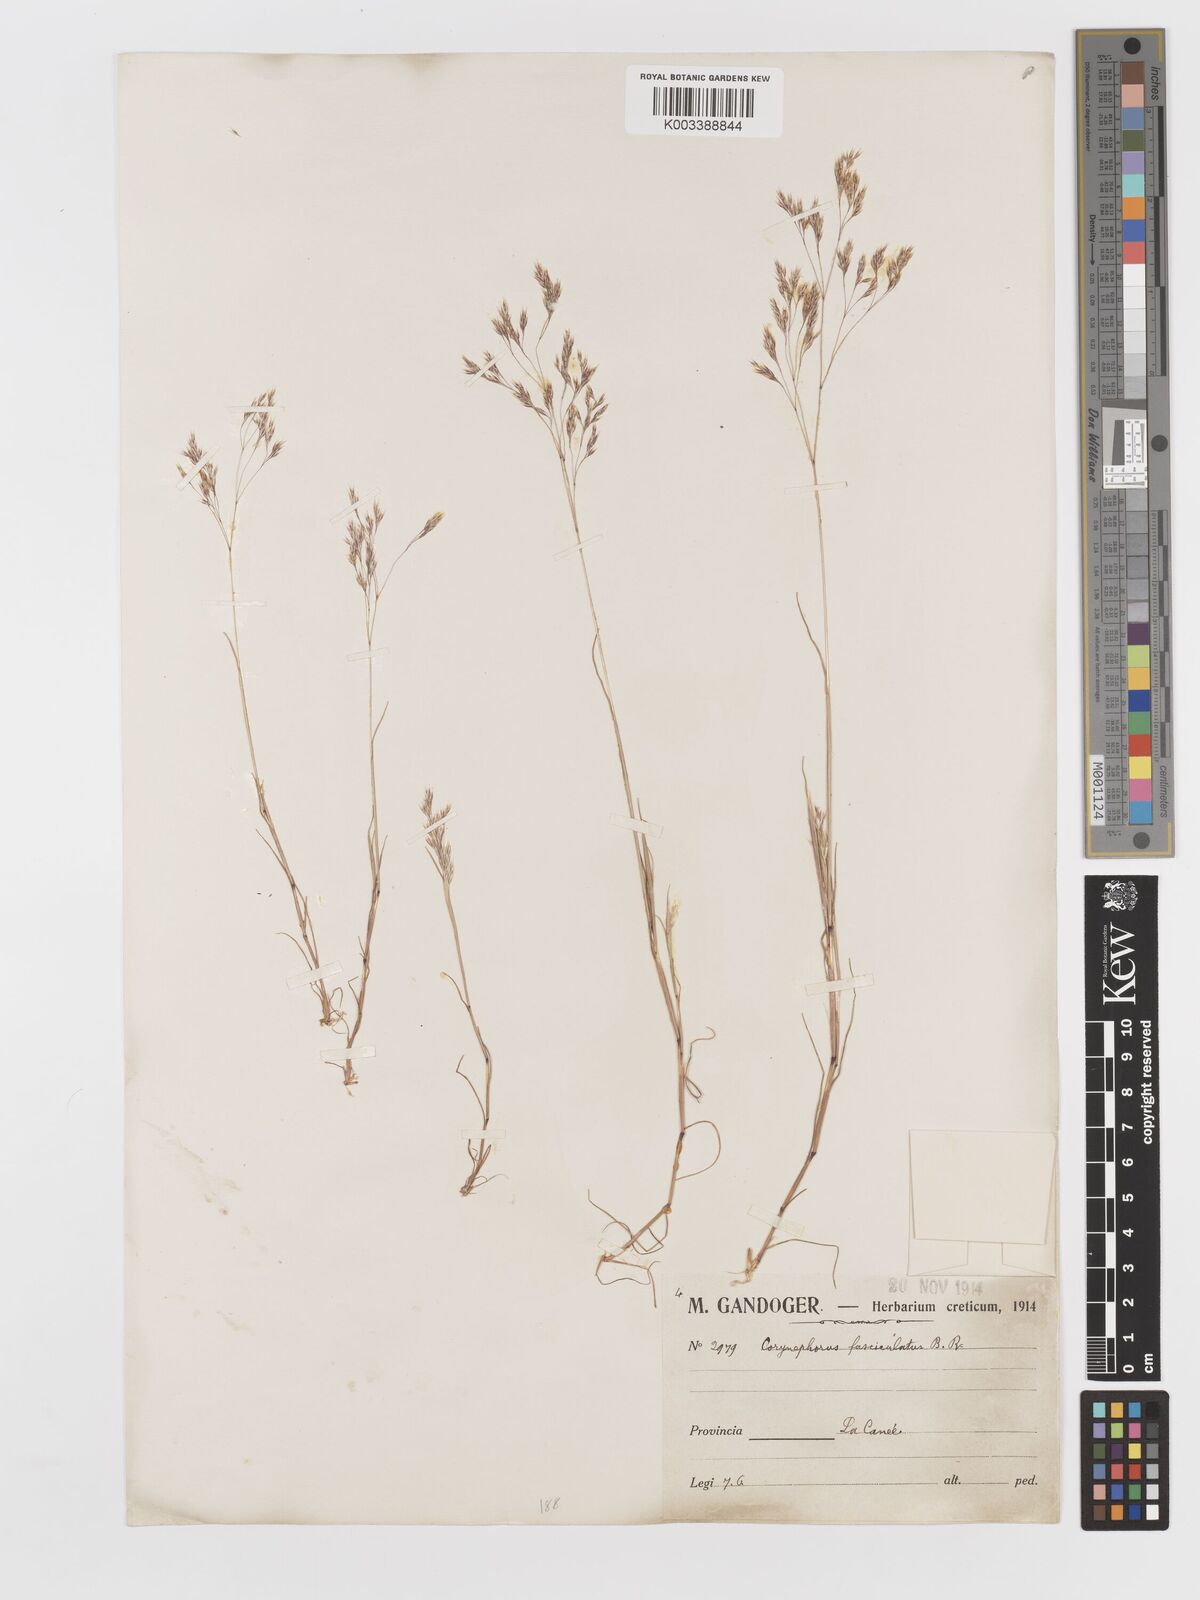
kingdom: Plantae
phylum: Tracheophyta
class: Liliopsida
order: Poales
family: Poaceae
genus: Corynephorus
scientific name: Corynephorus divaricatus
